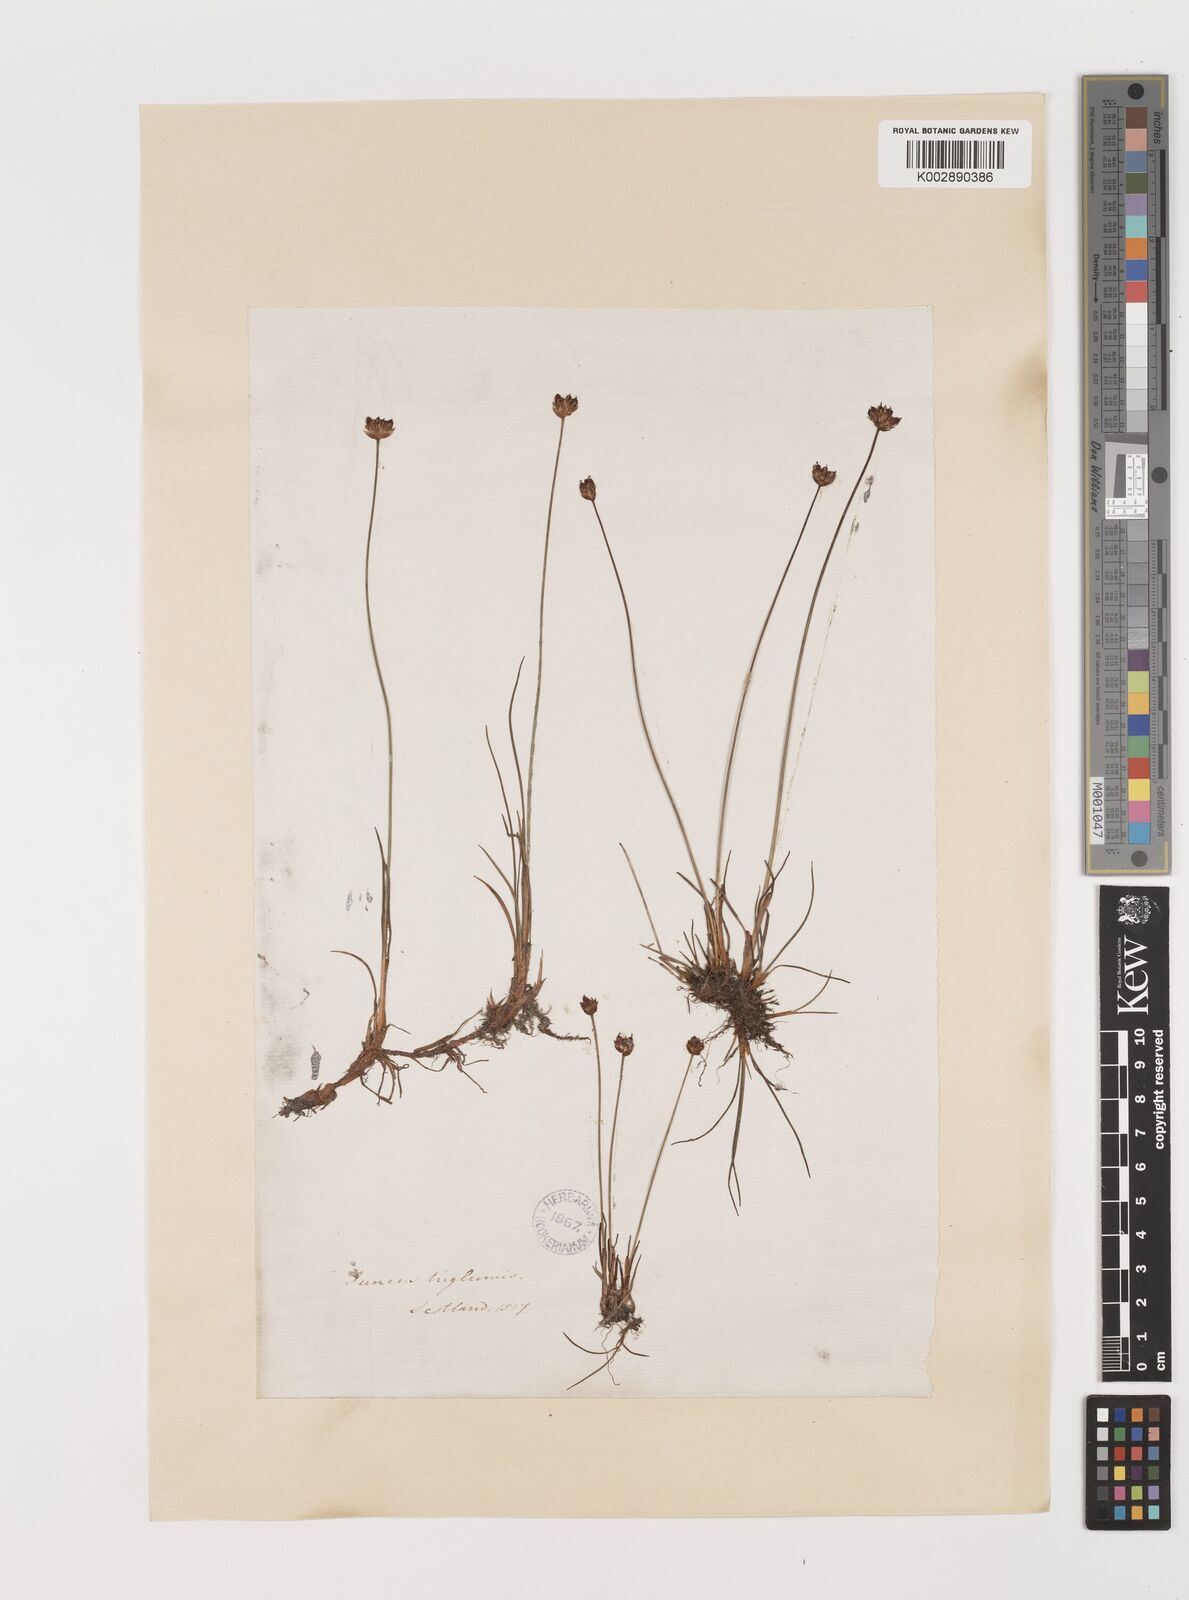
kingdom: Plantae
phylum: Tracheophyta
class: Liliopsida
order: Poales
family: Juncaceae
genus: Juncus
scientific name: Juncus triglumis
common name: Three-flowered rush
